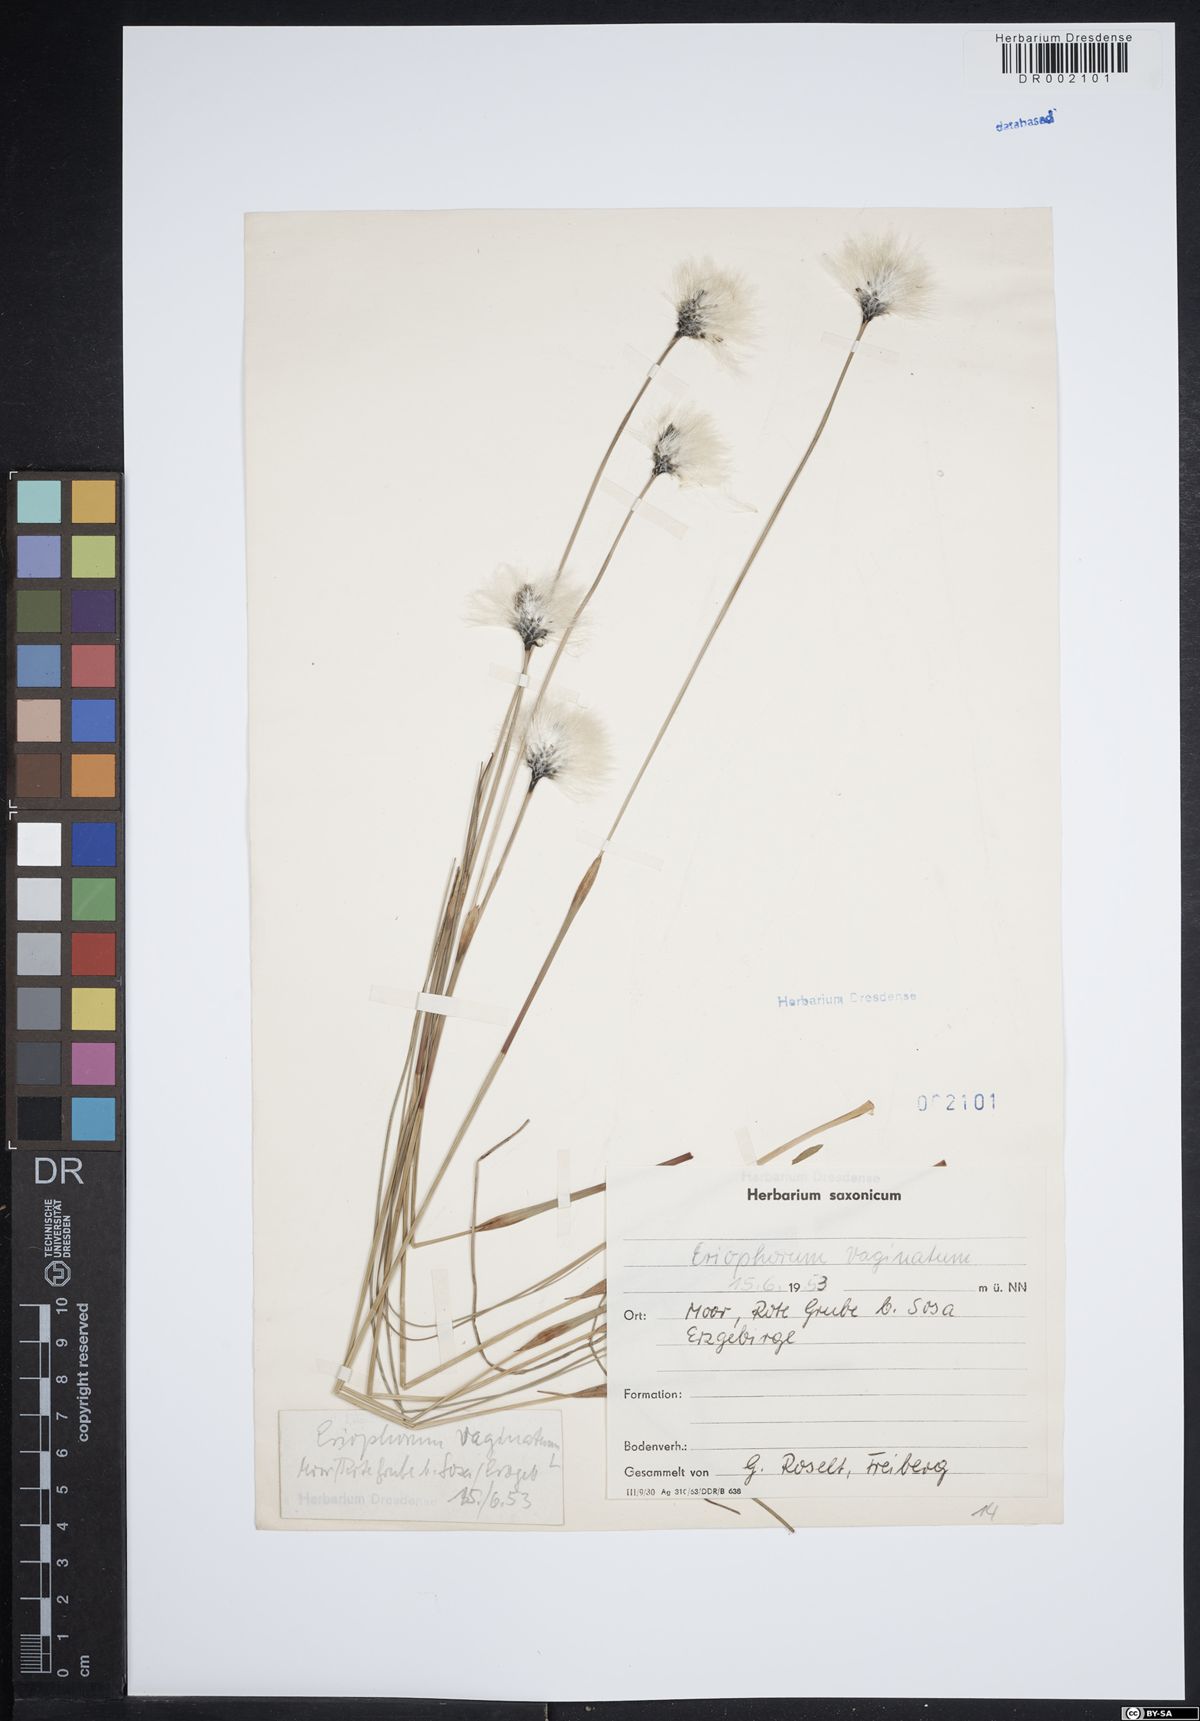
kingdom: Plantae
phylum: Tracheophyta
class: Liliopsida
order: Poales
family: Cyperaceae
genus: Eriophorum
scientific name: Eriophorum vaginatum
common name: Hare's-tail cottongrass
